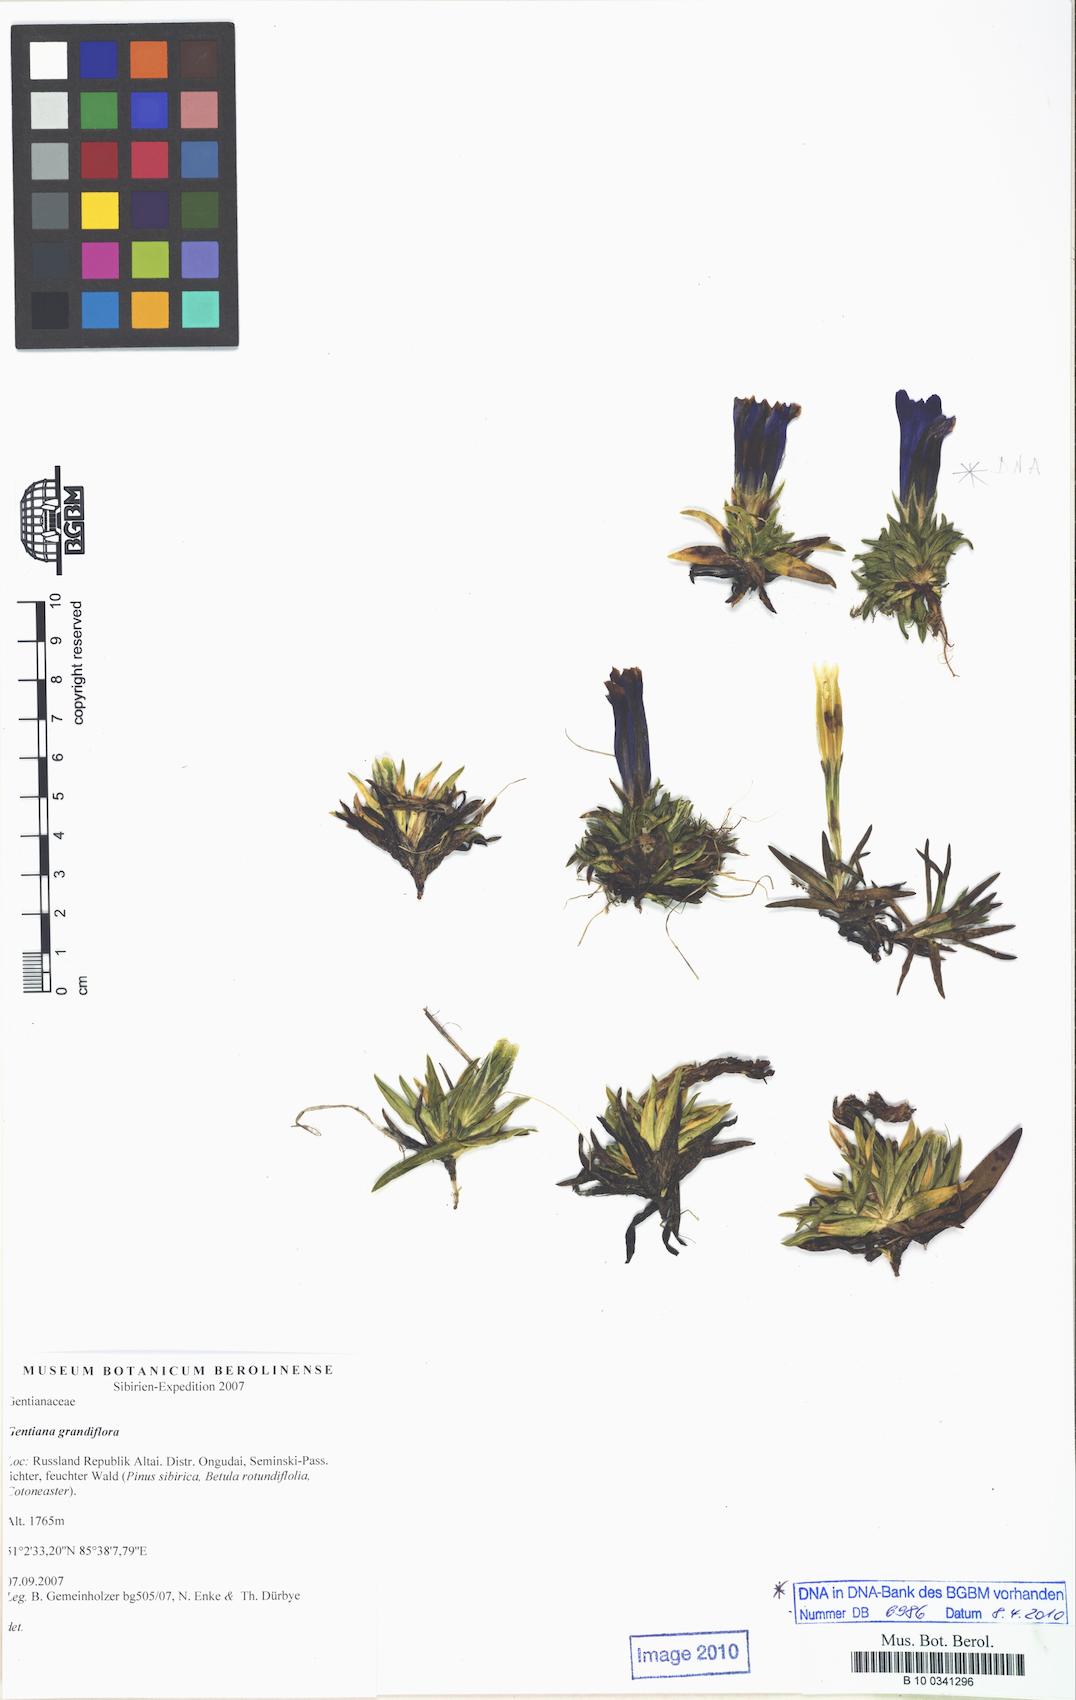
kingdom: Plantae
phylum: Tracheophyta
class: Magnoliopsida
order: Gentianales
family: Gentianaceae
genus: Gentiana
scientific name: Gentiana grandiflora
